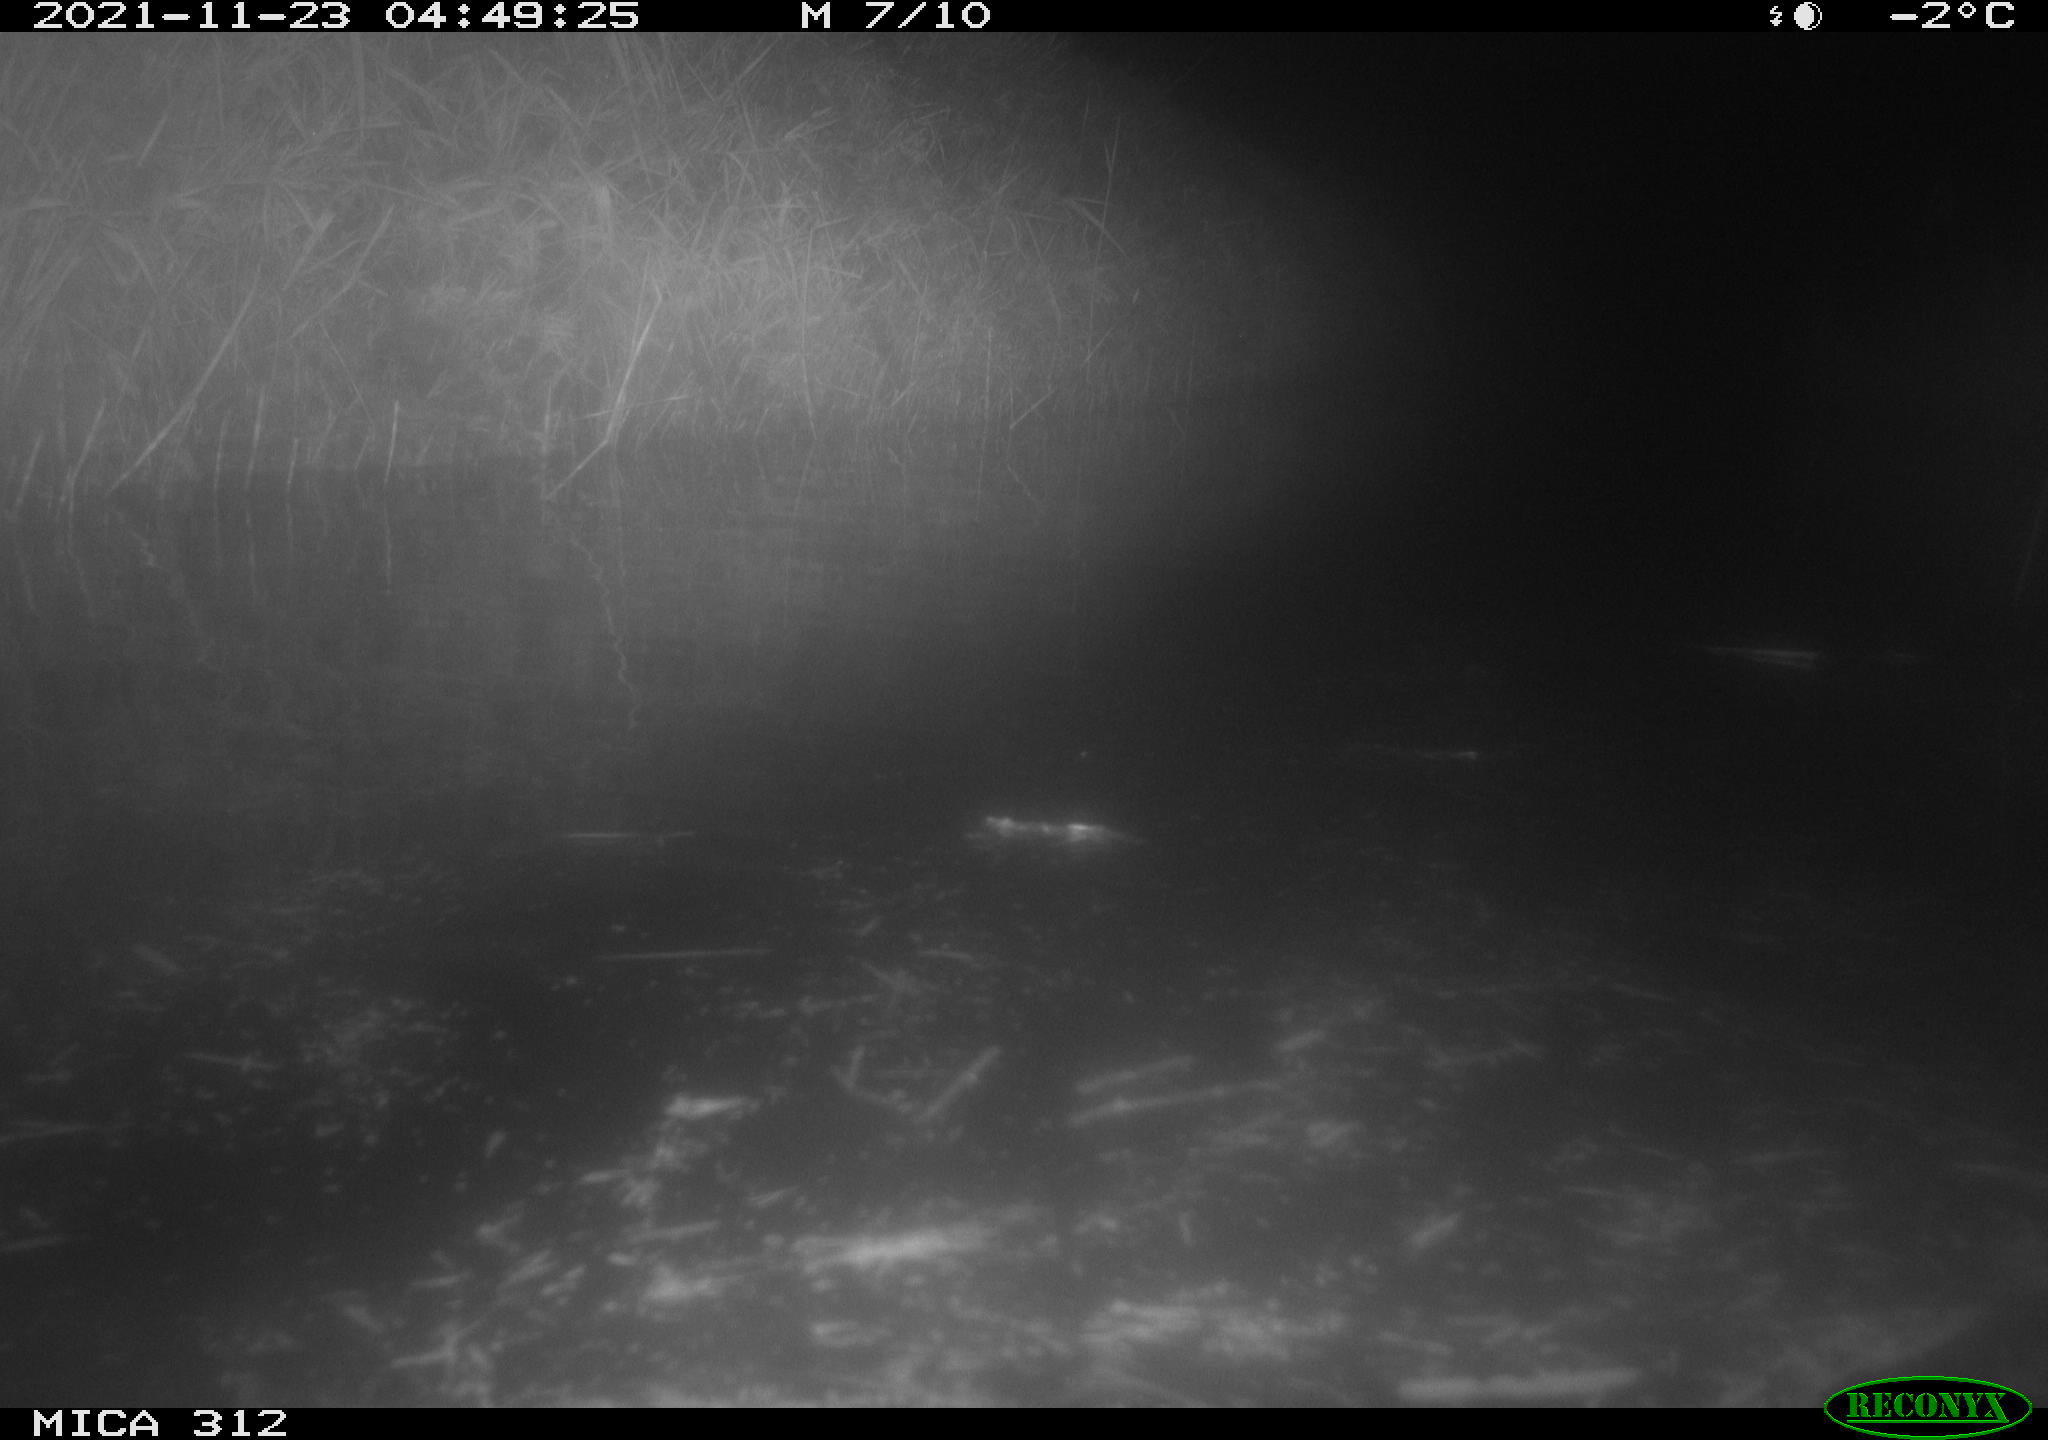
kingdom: Animalia
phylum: Chordata
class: Mammalia
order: Rodentia
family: Muridae
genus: Rattus
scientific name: Rattus norvegicus
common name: Brown rat
